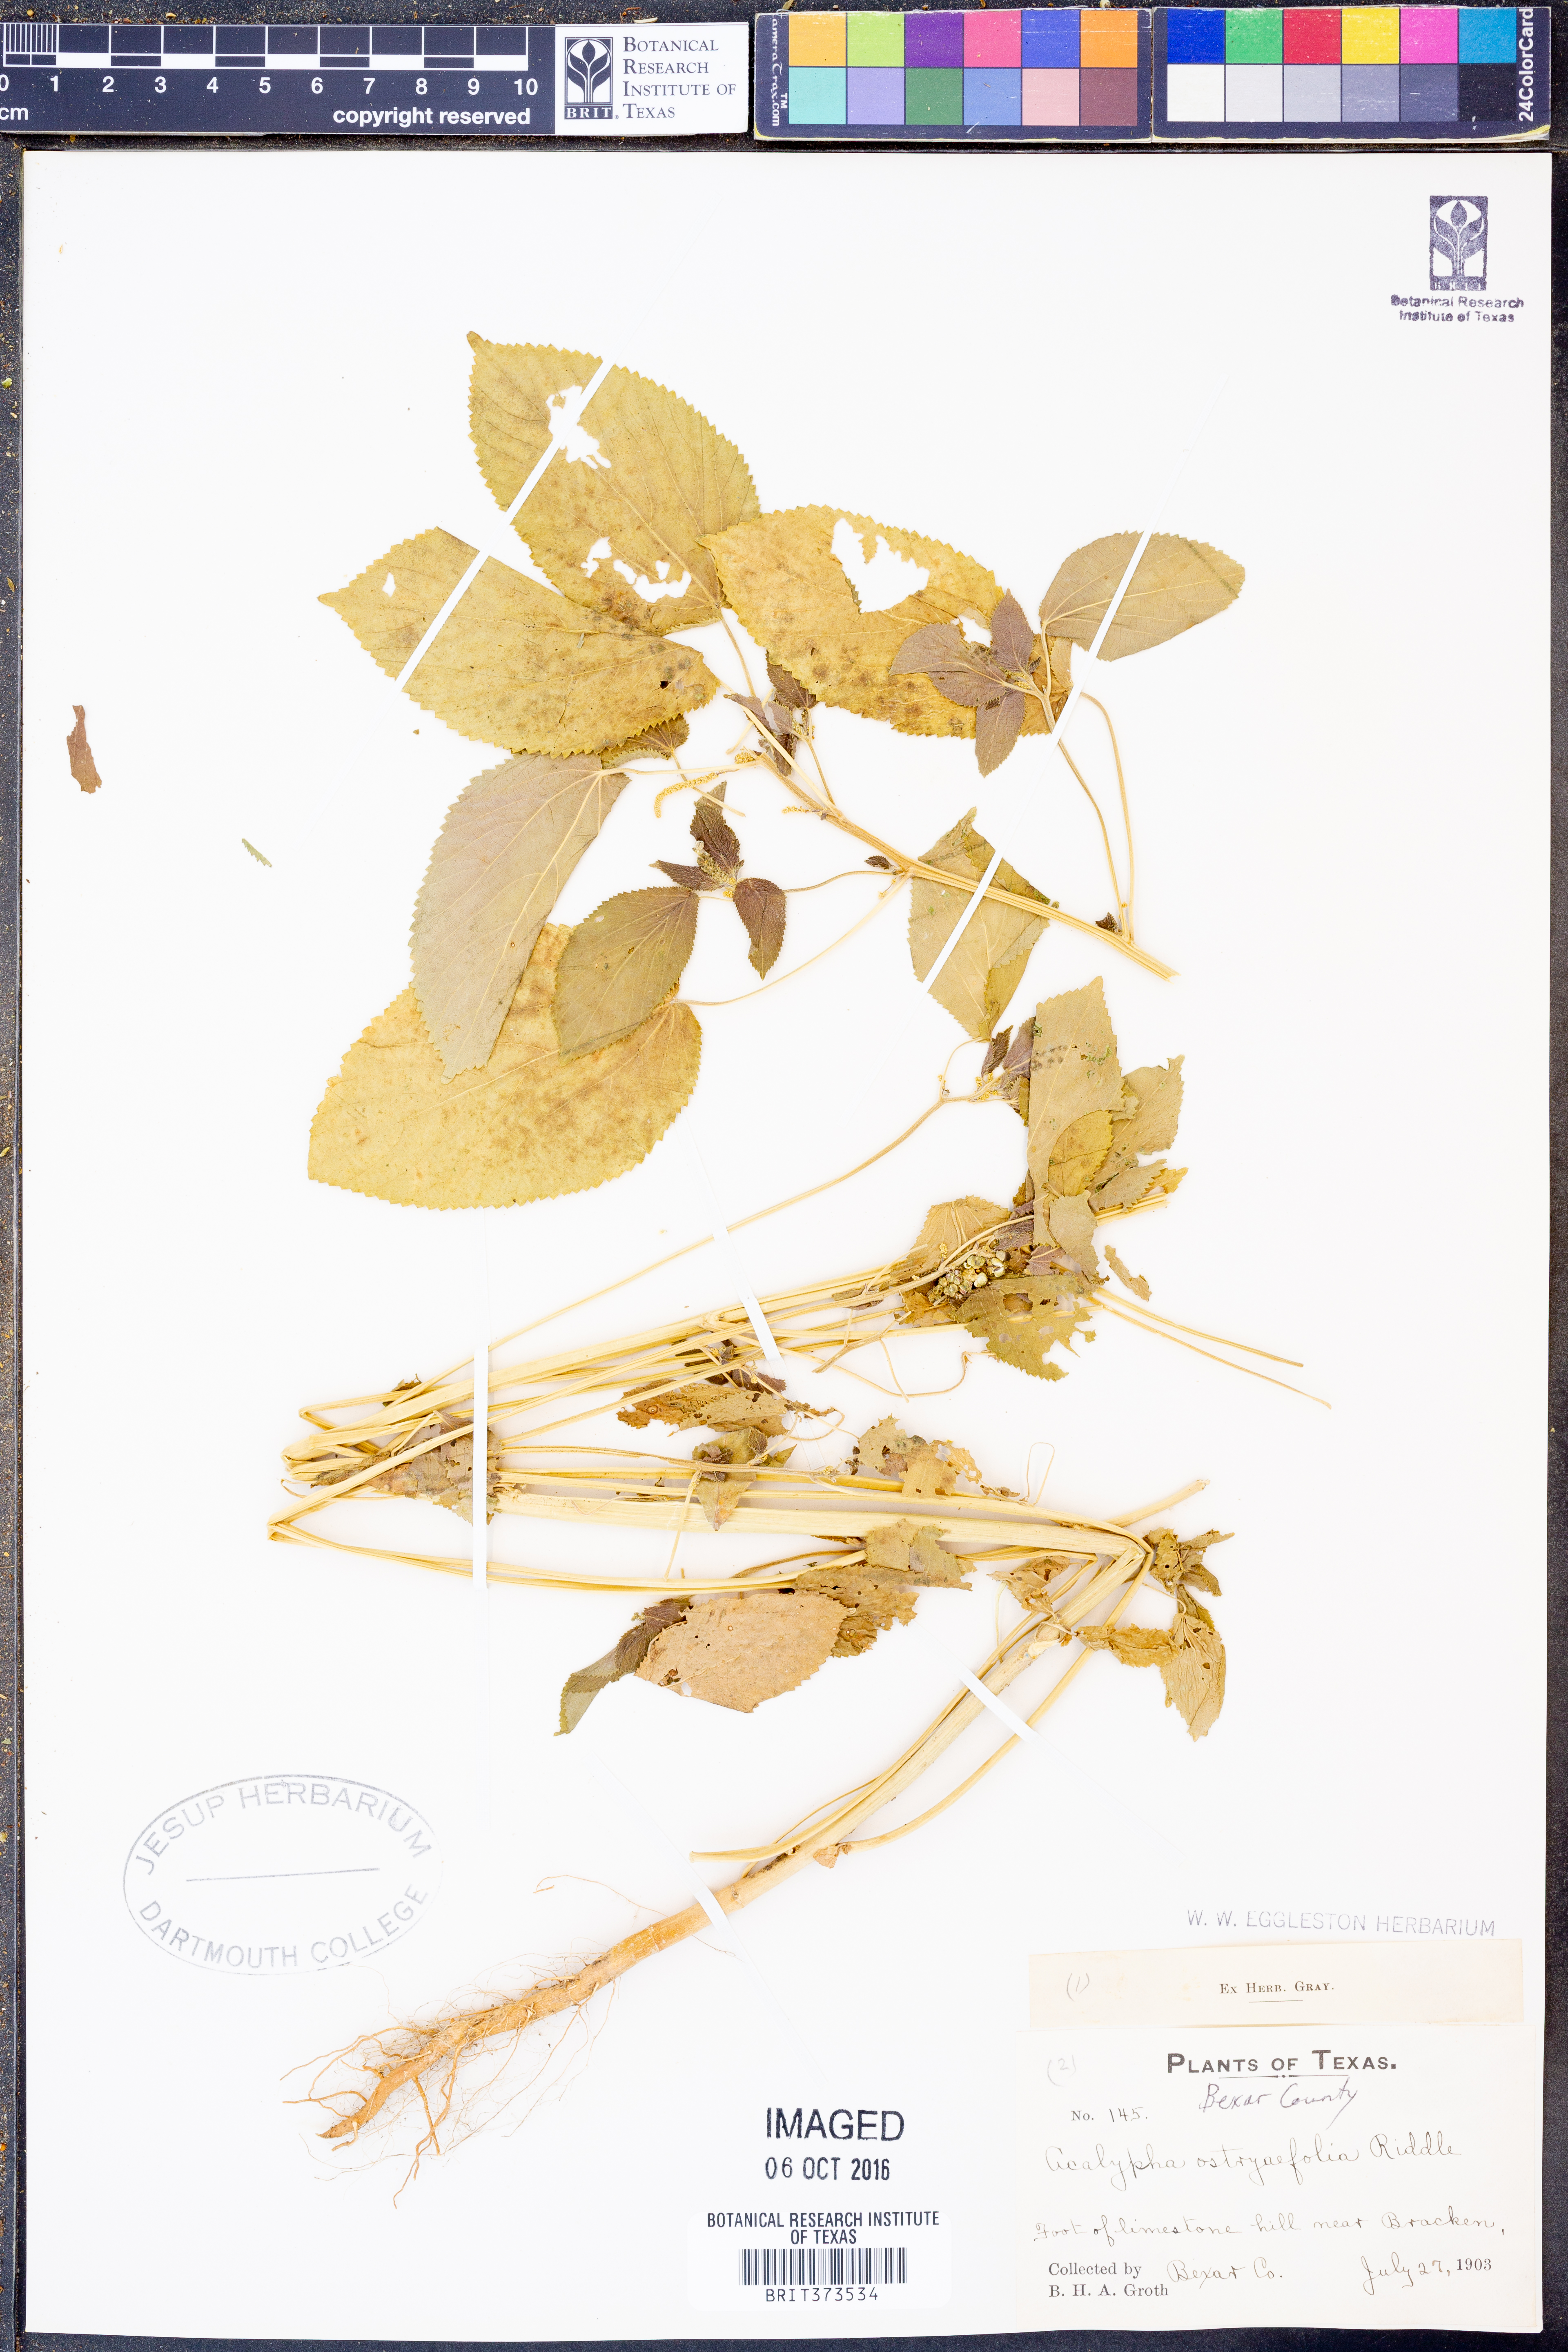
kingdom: Plantae
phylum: Tracheophyta
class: Magnoliopsida
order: Malpighiales
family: Euphorbiaceae
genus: Acalypha
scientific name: Acalypha ostryifolia
